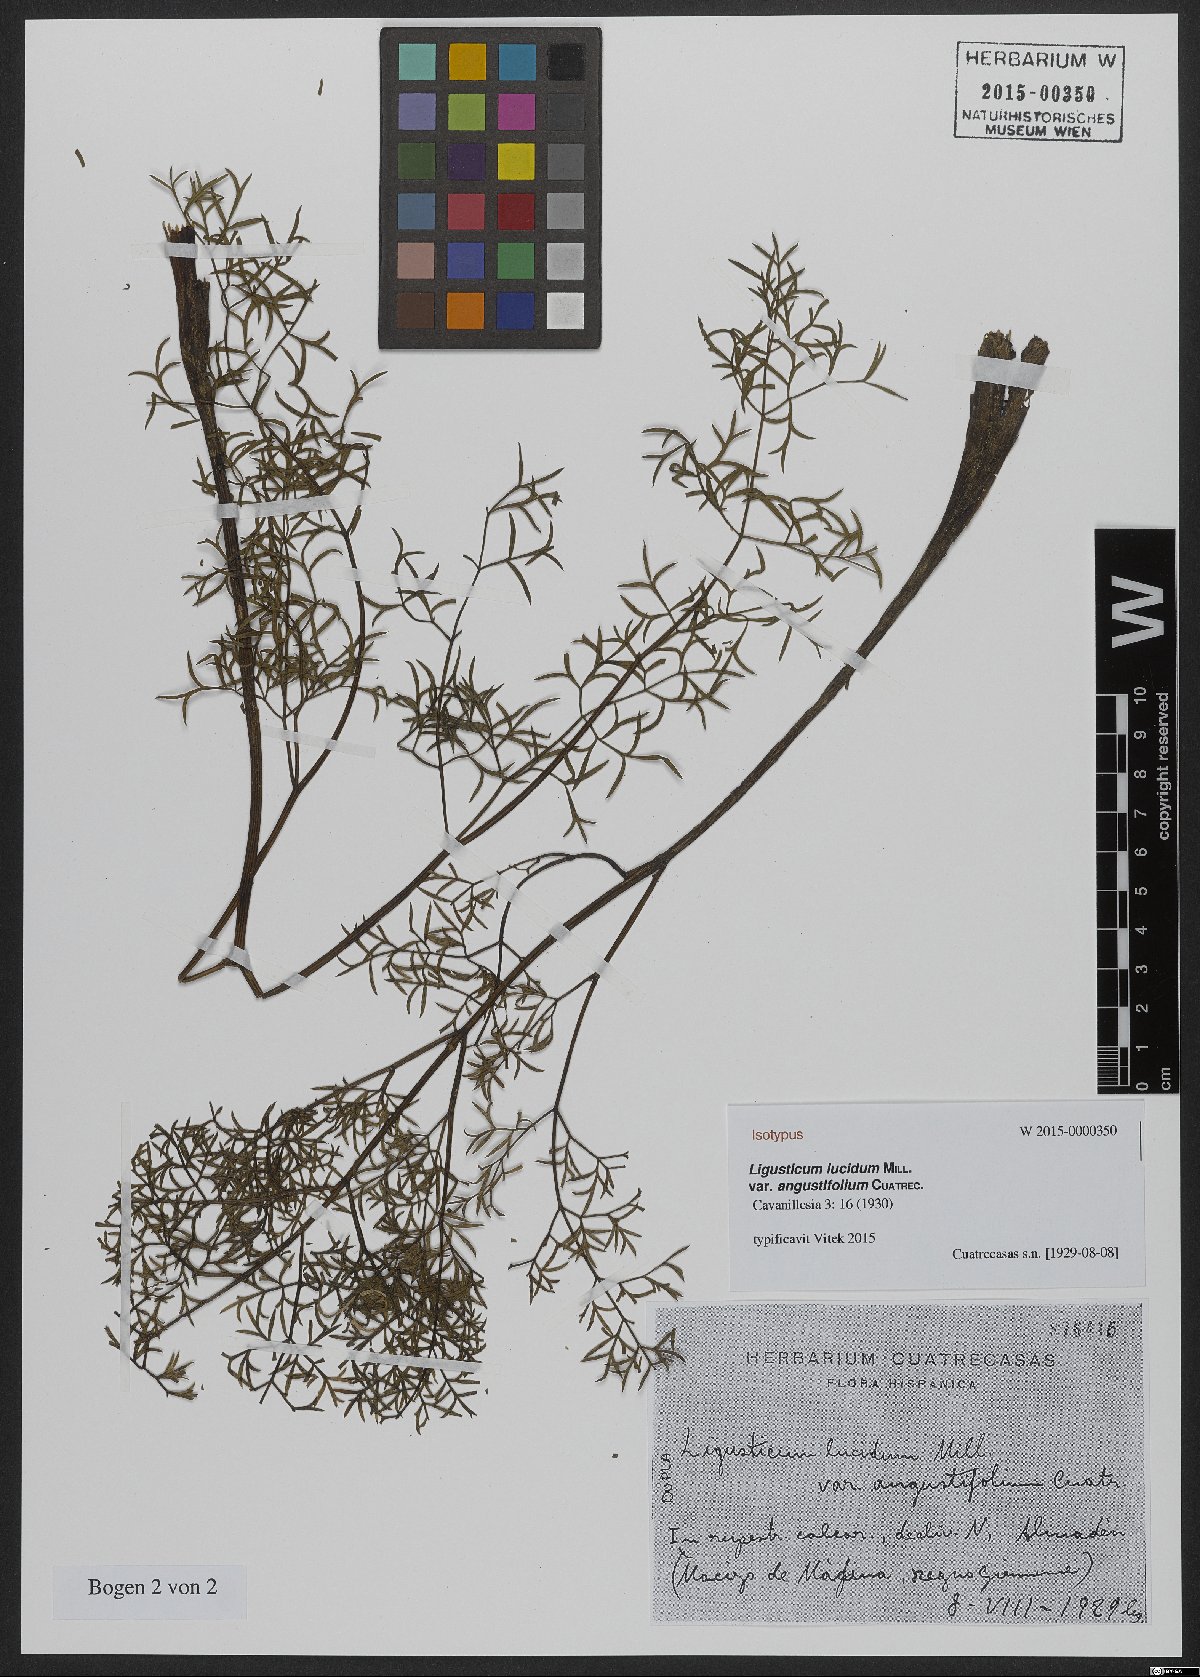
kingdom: Plantae
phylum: Tracheophyta
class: Magnoliopsida
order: Apiales
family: Apiaceae
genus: Coristospermum
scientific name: Coristospermum lucidum
